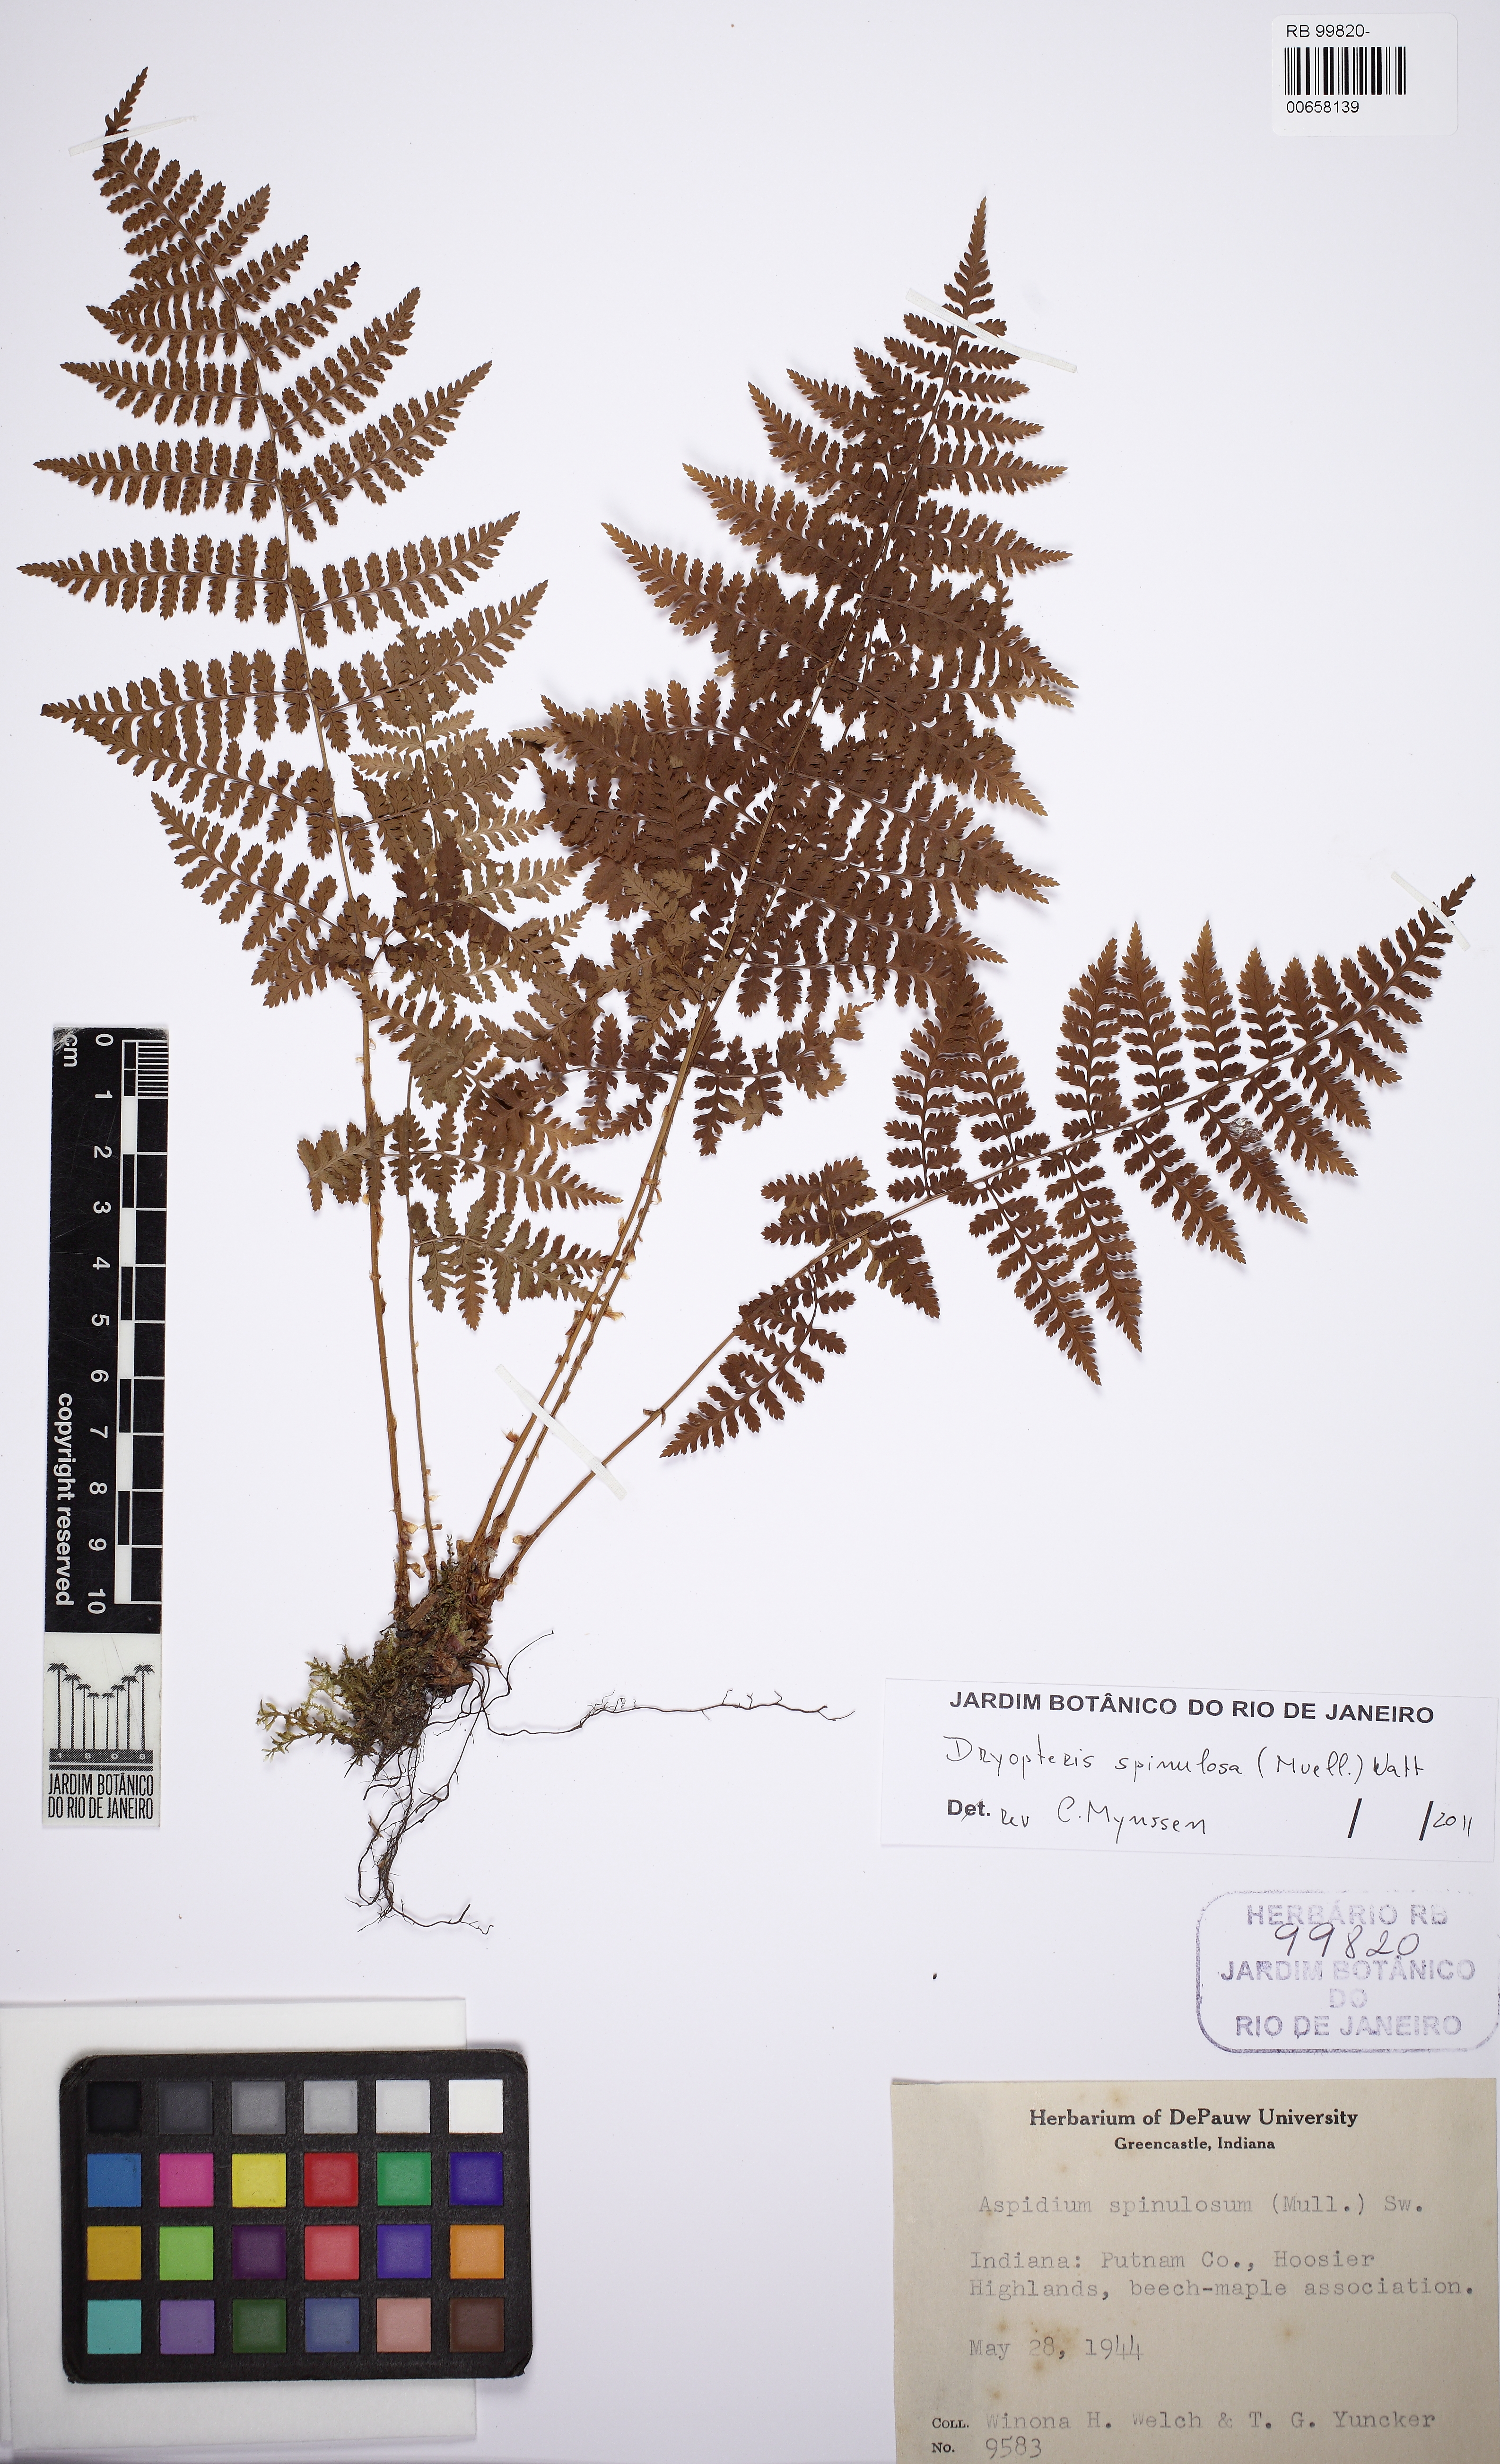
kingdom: Plantae
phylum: Tracheophyta
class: Polypodiopsida
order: Polypodiales
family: Dryopteridaceae
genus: Dryopteris
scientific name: Dryopteris carthusiana
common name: Narrow buckler-fern
